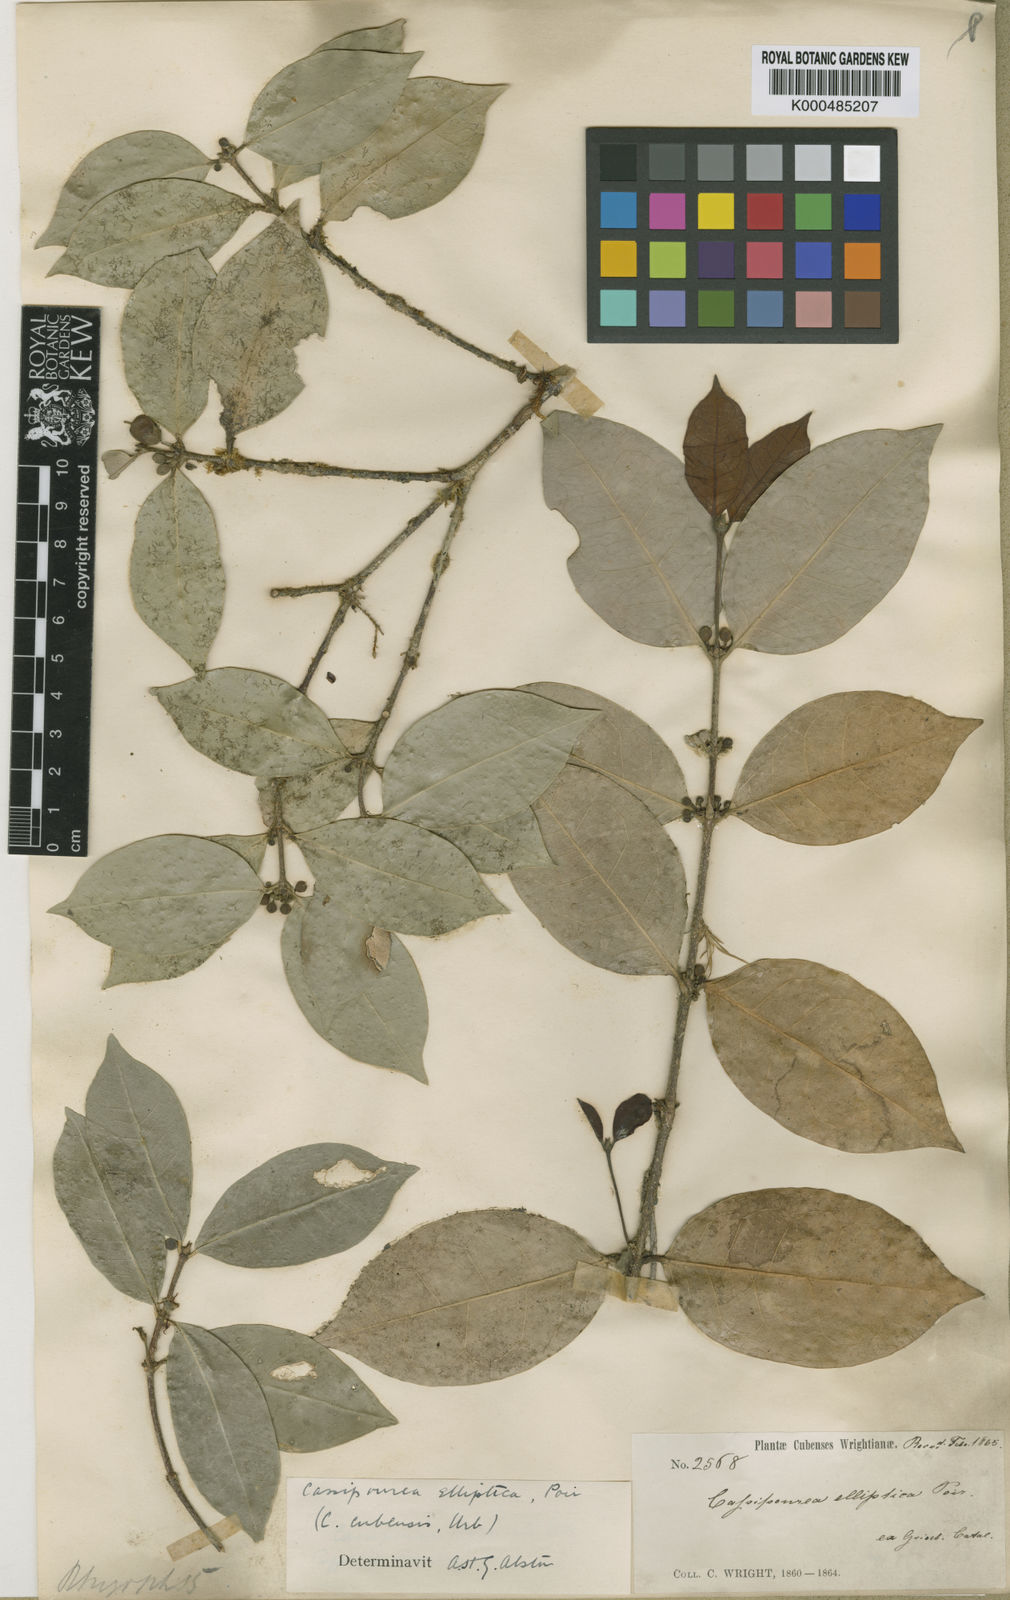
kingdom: Plantae
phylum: Tracheophyta
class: Magnoliopsida
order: Malpighiales
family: Rhizophoraceae
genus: Cassipourea
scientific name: Cassipourea elliptica
